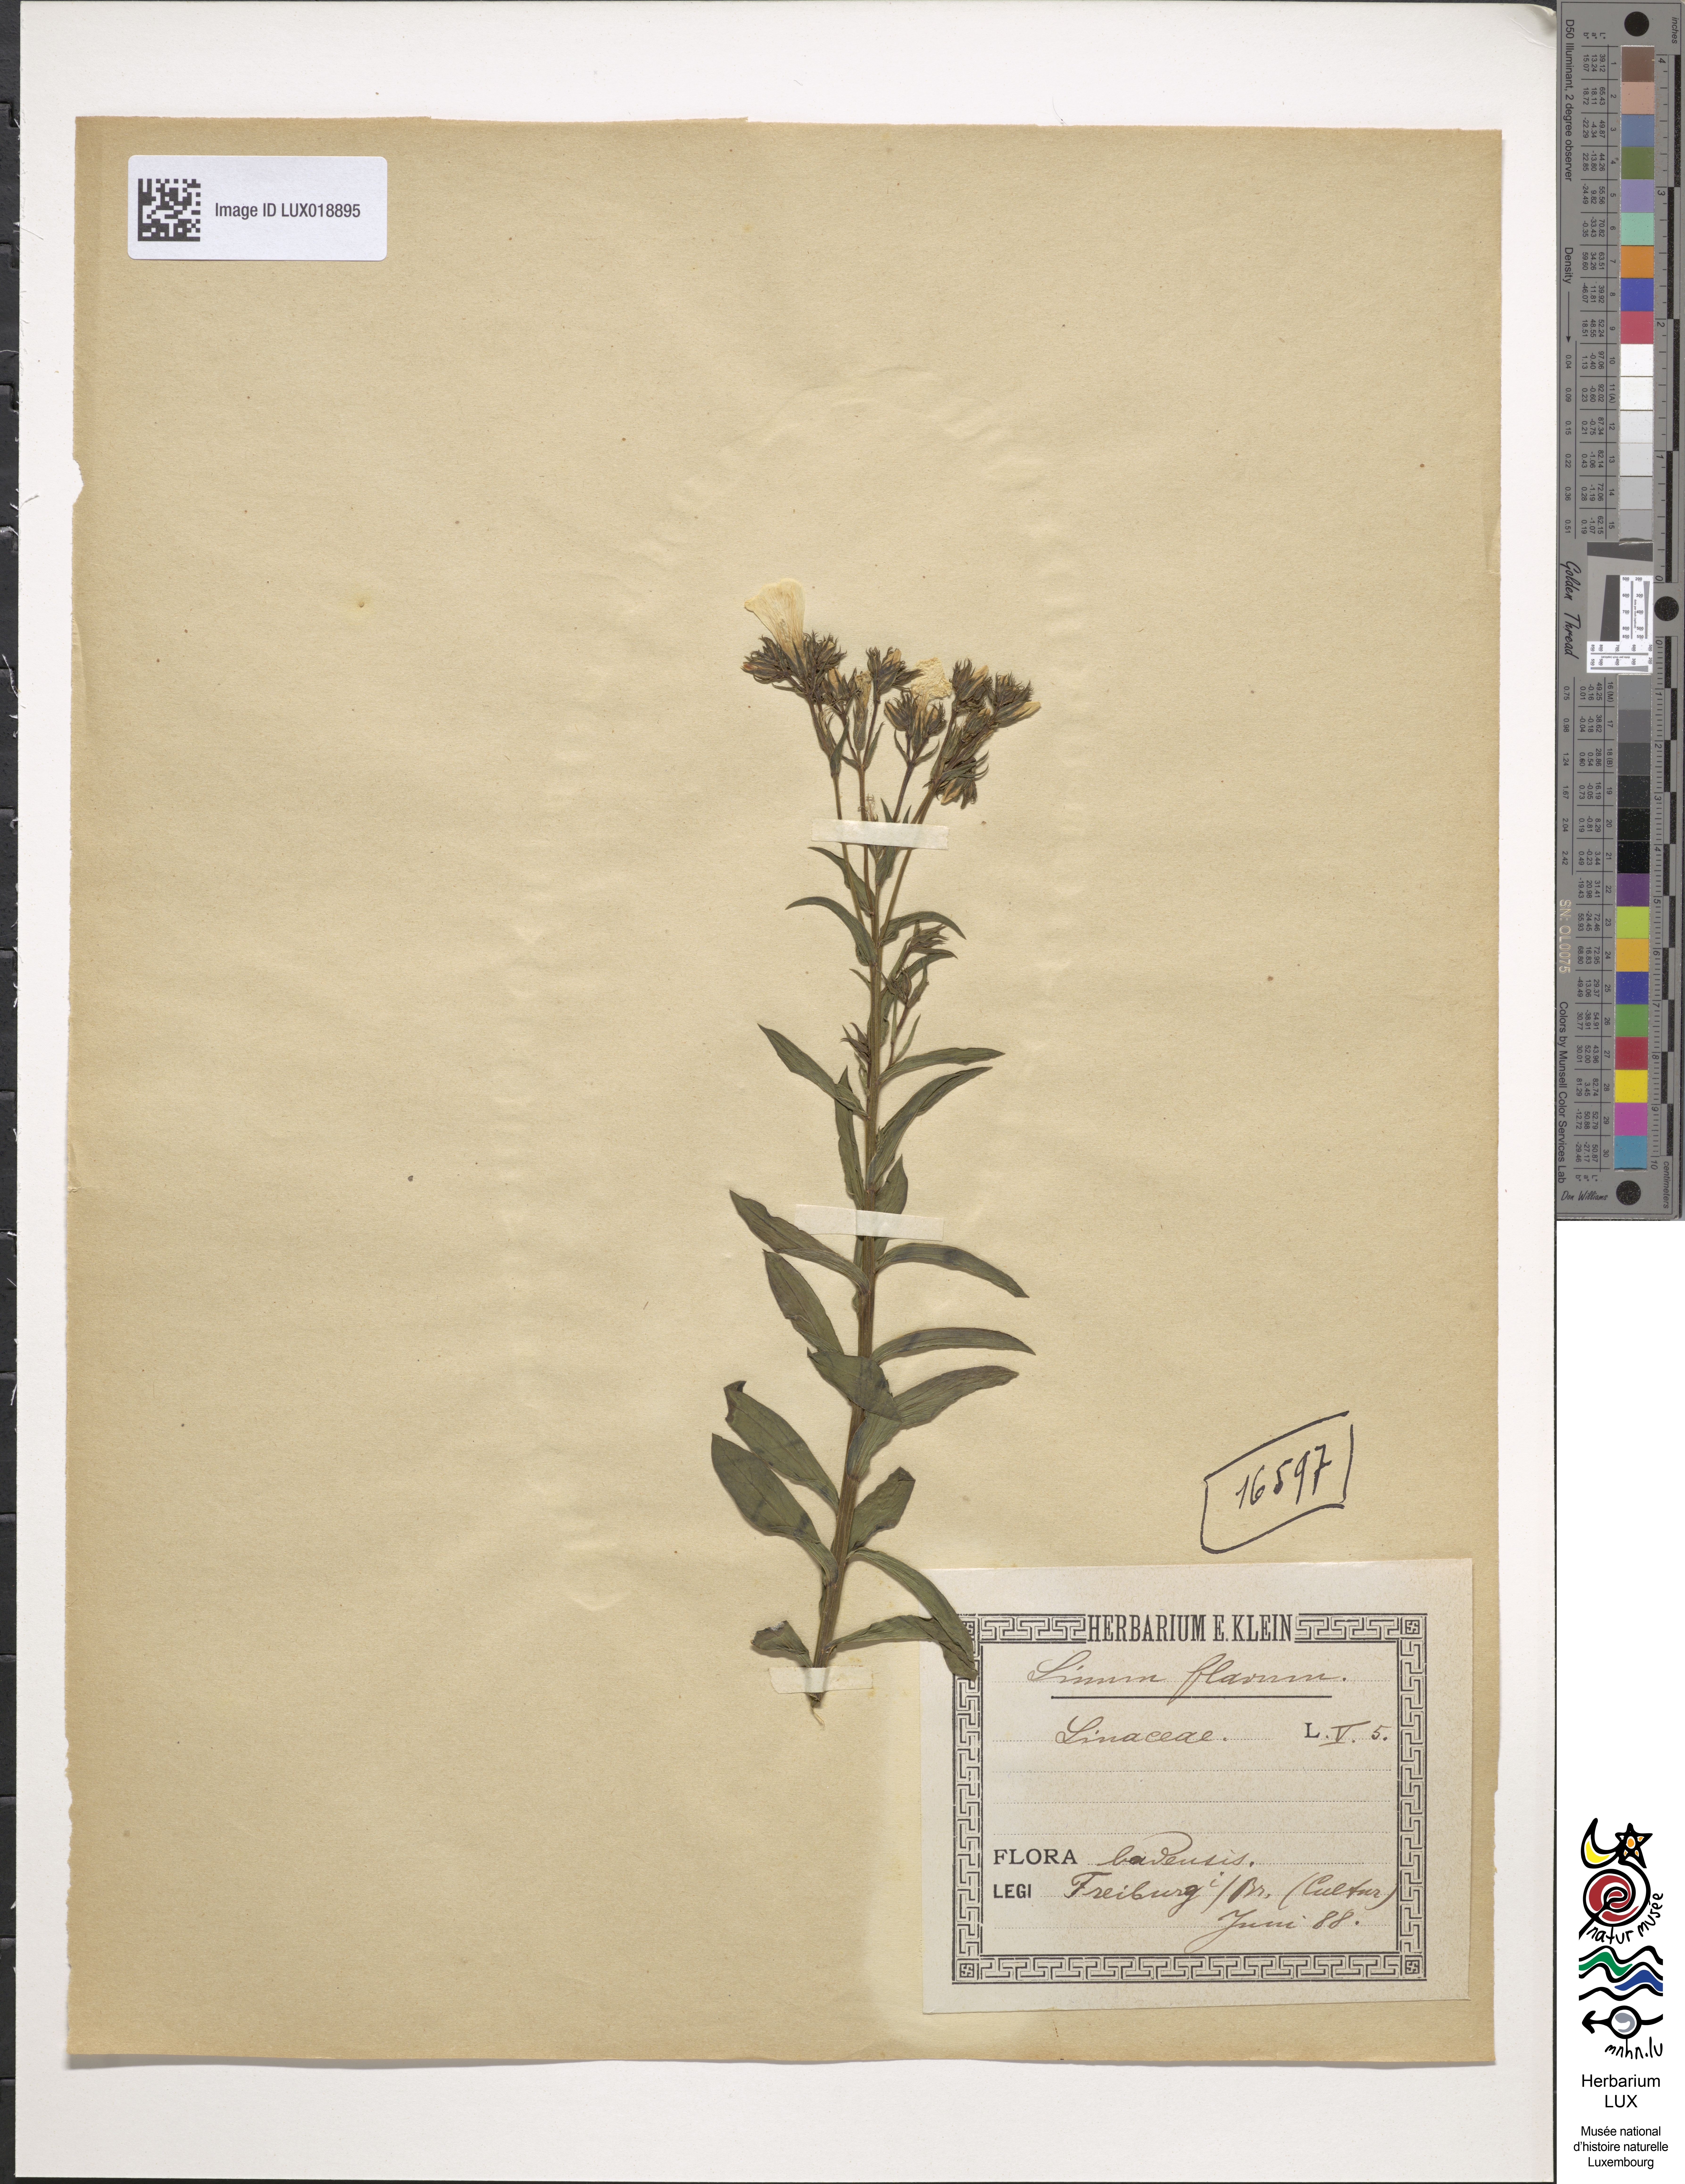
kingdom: Plantae
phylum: Tracheophyta
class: Magnoliopsida
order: Malpighiales
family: Linaceae
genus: Linum
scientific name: Linum flavum
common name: Yellow flax
